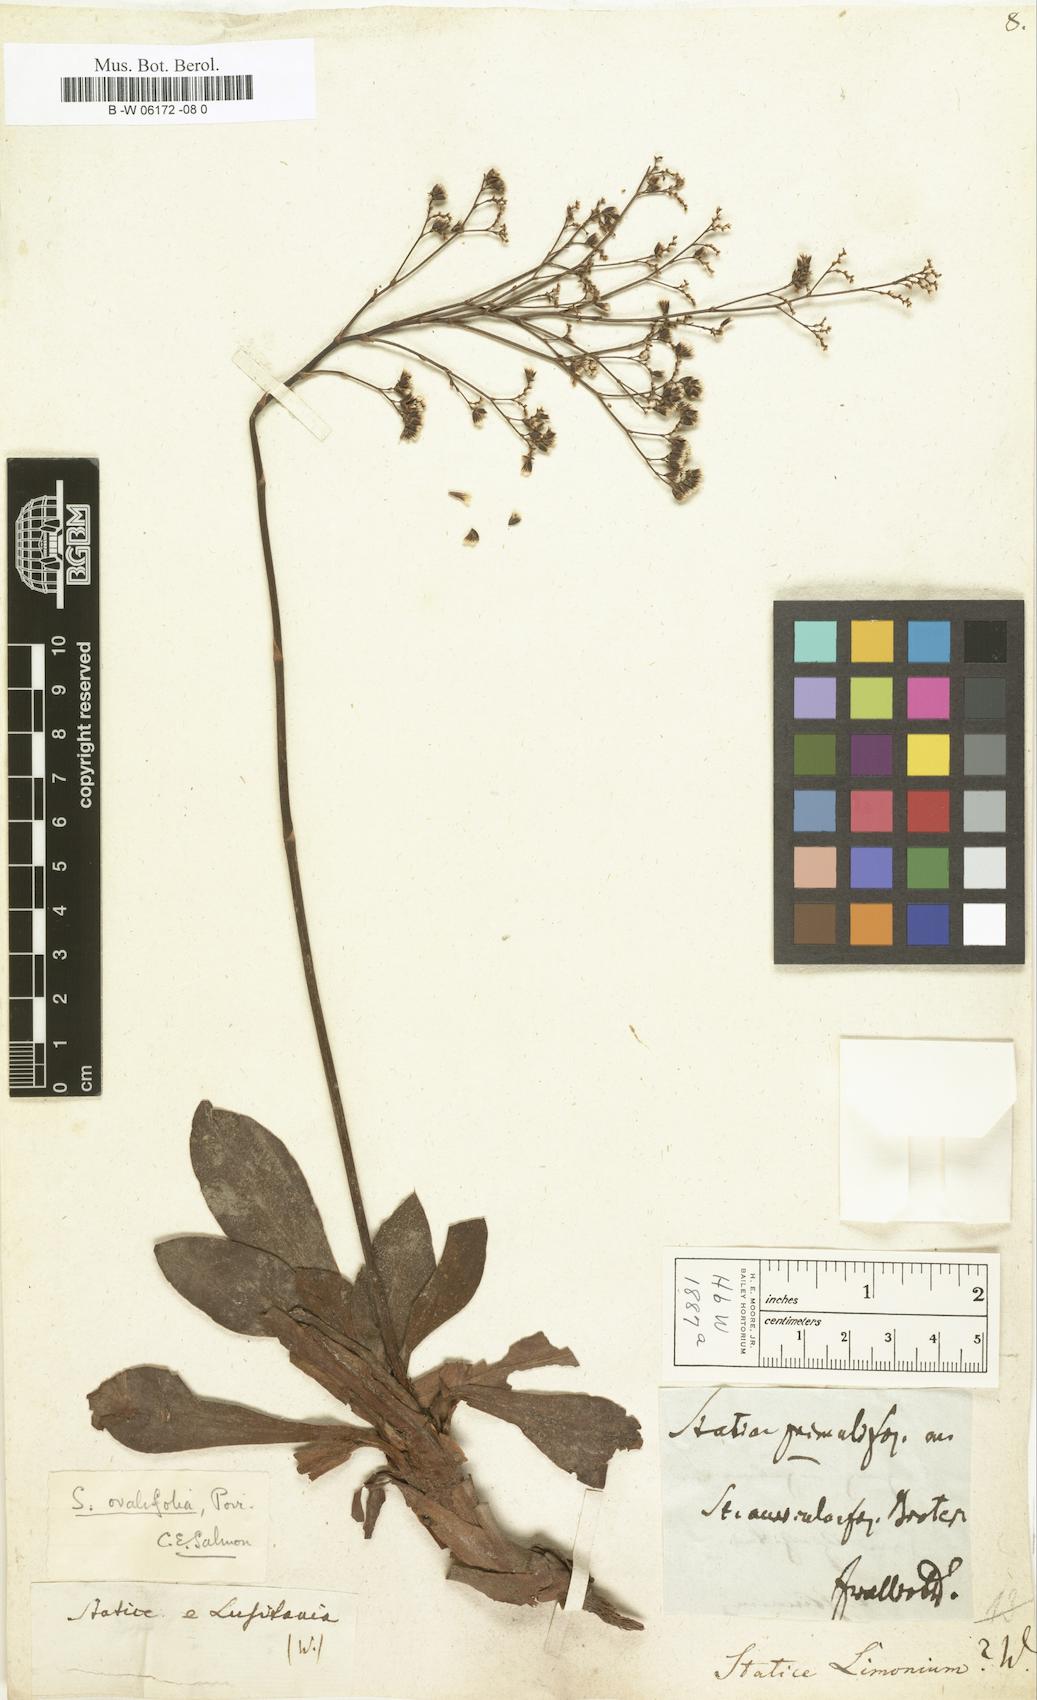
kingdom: Plantae
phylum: Tracheophyta
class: Magnoliopsida
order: Caryophyllales
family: Plumbaginaceae
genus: Limonium
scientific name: Limonium vulgare
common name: Common sea-lavender
